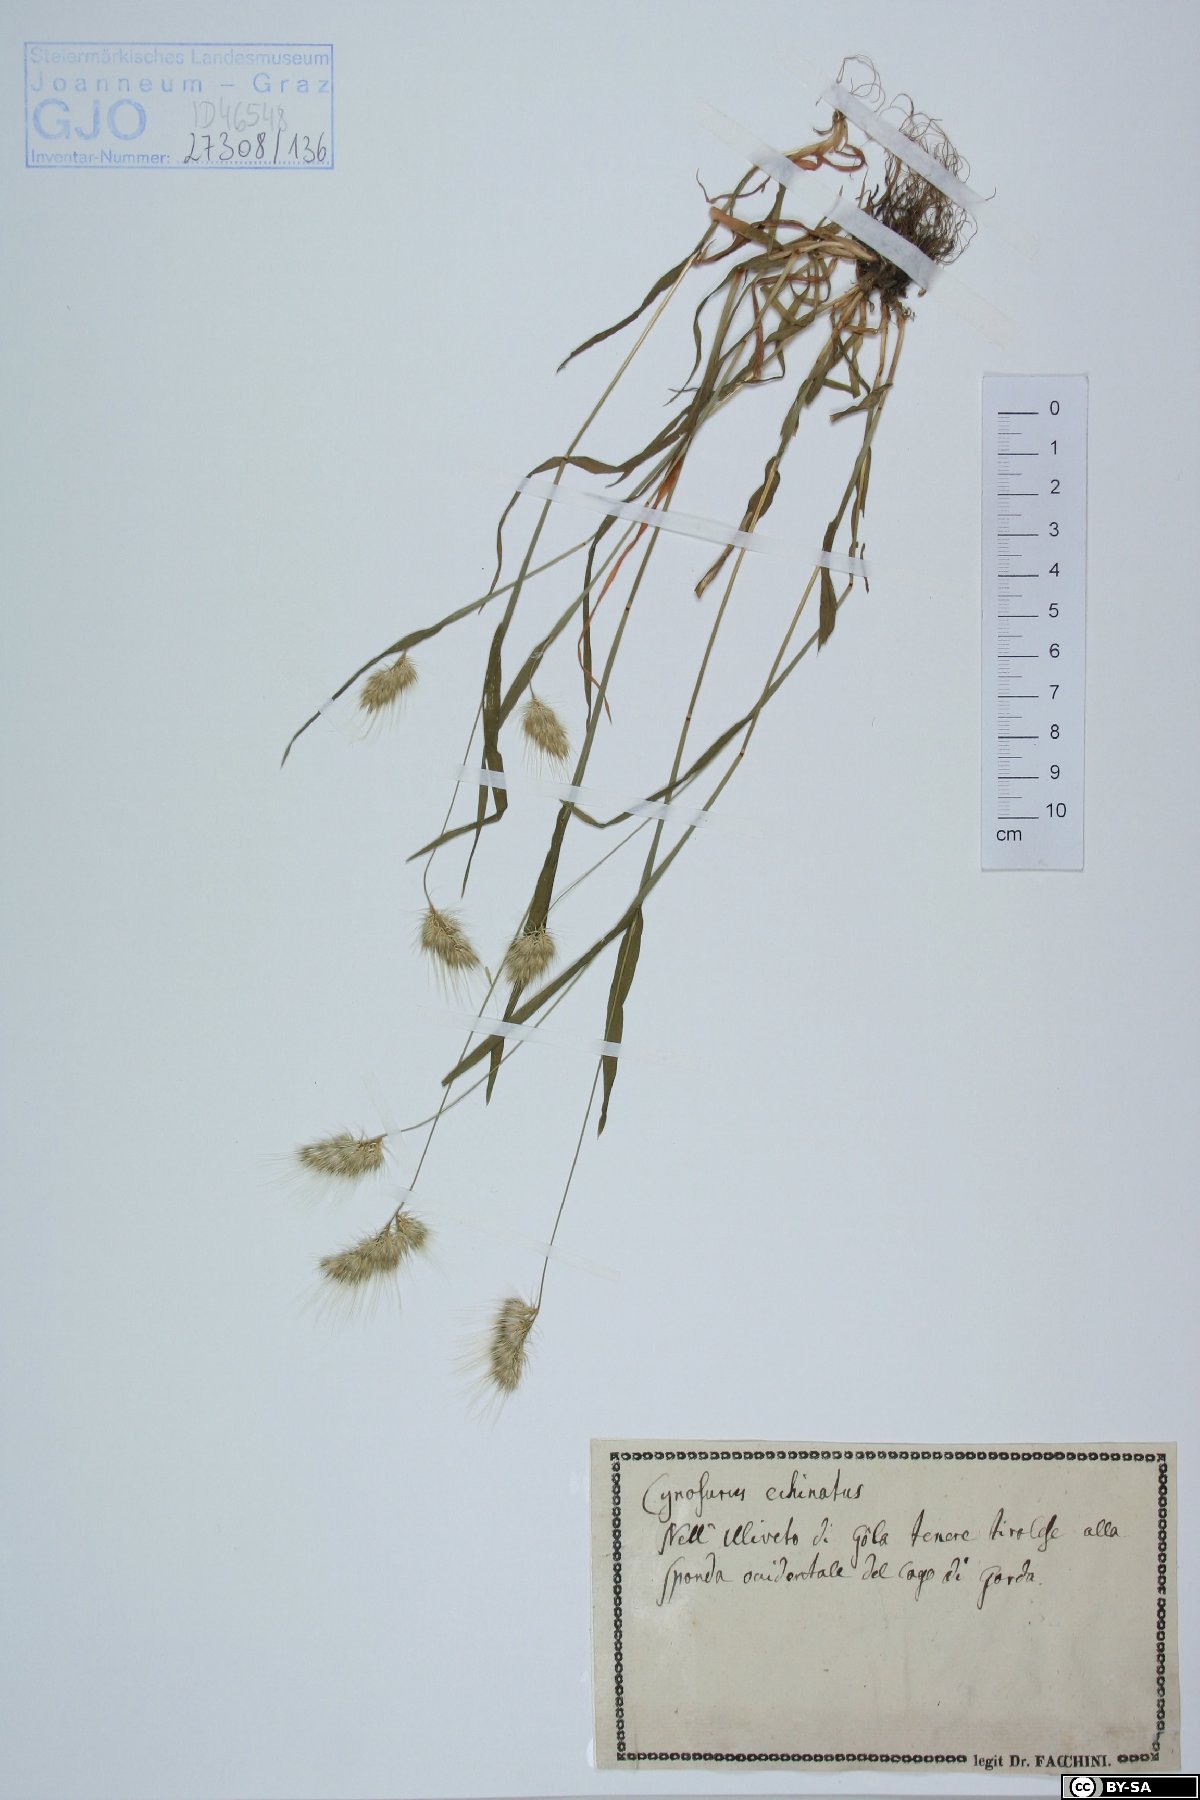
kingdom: Plantae
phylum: Tracheophyta
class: Liliopsida
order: Poales
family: Poaceae
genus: Cynosurus
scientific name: Cynosurus echinatus
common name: Rough dog's-tail
